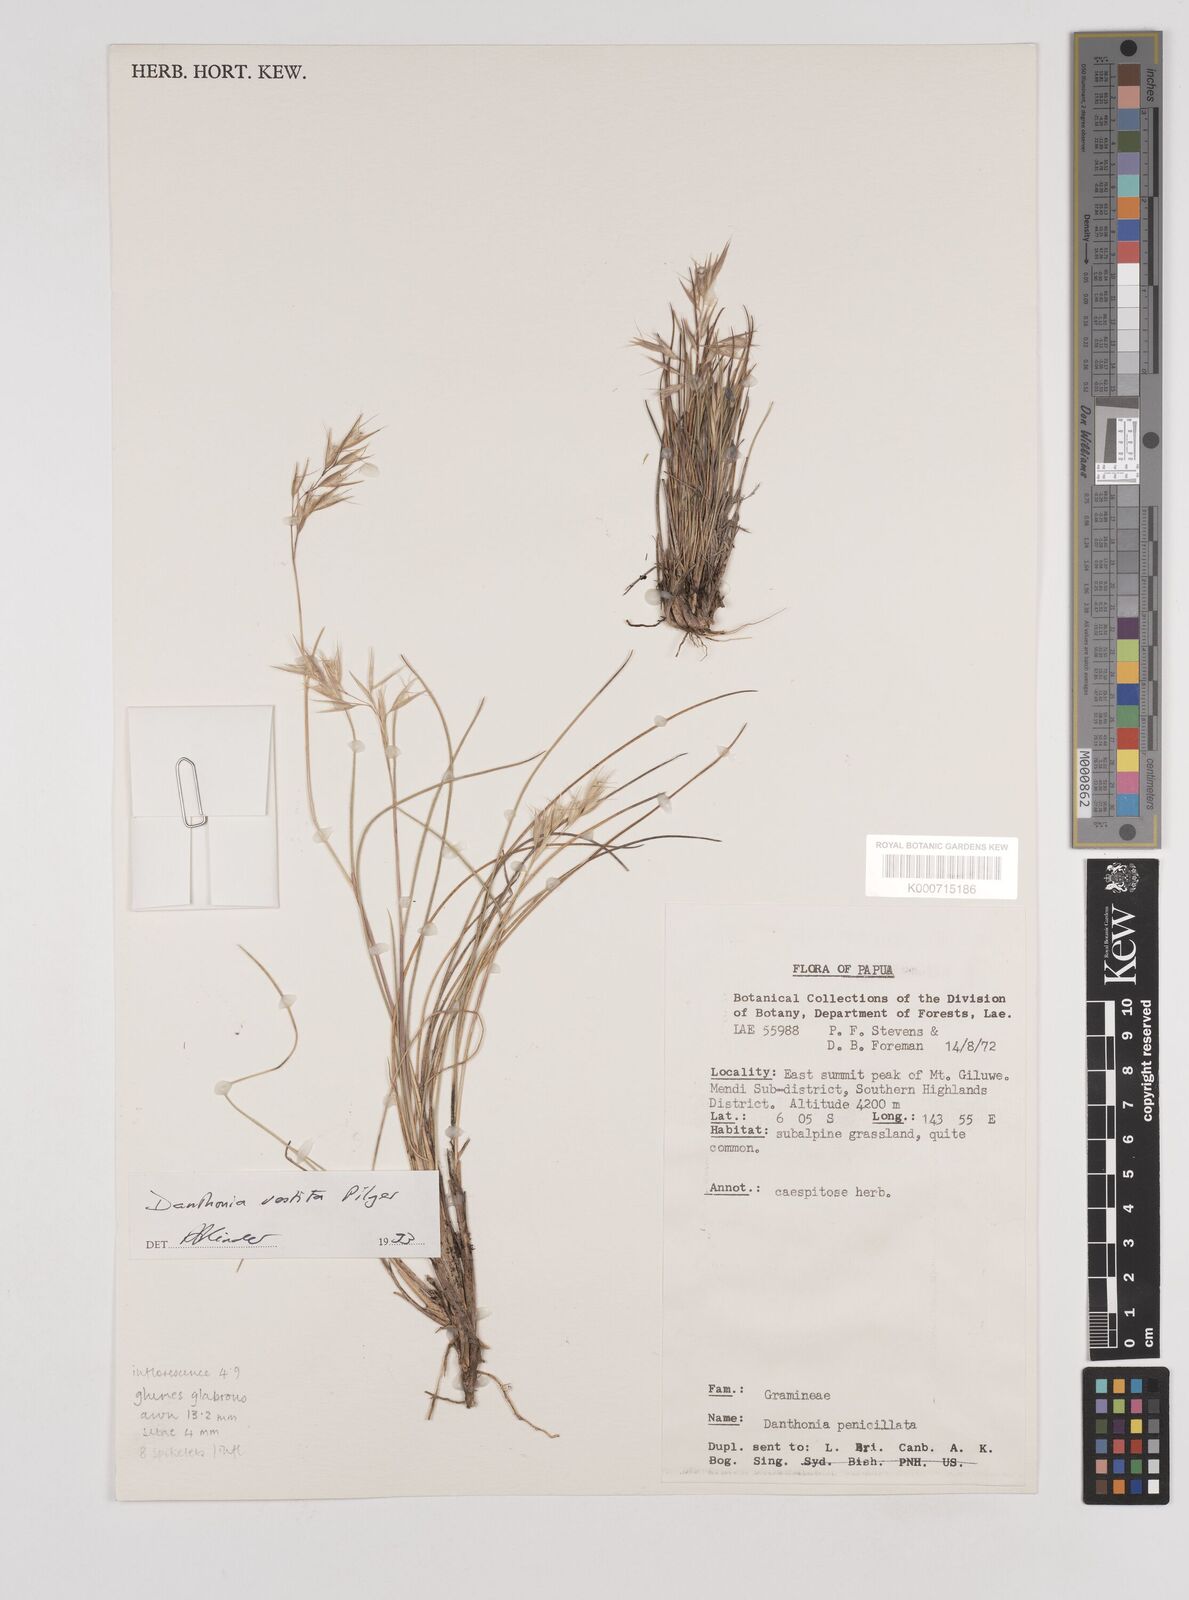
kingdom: Plantae
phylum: Tracheophyta
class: Liliopsida
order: Poales
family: Poaceae
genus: Rytidosperma
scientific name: Rytidosperma vestitum
